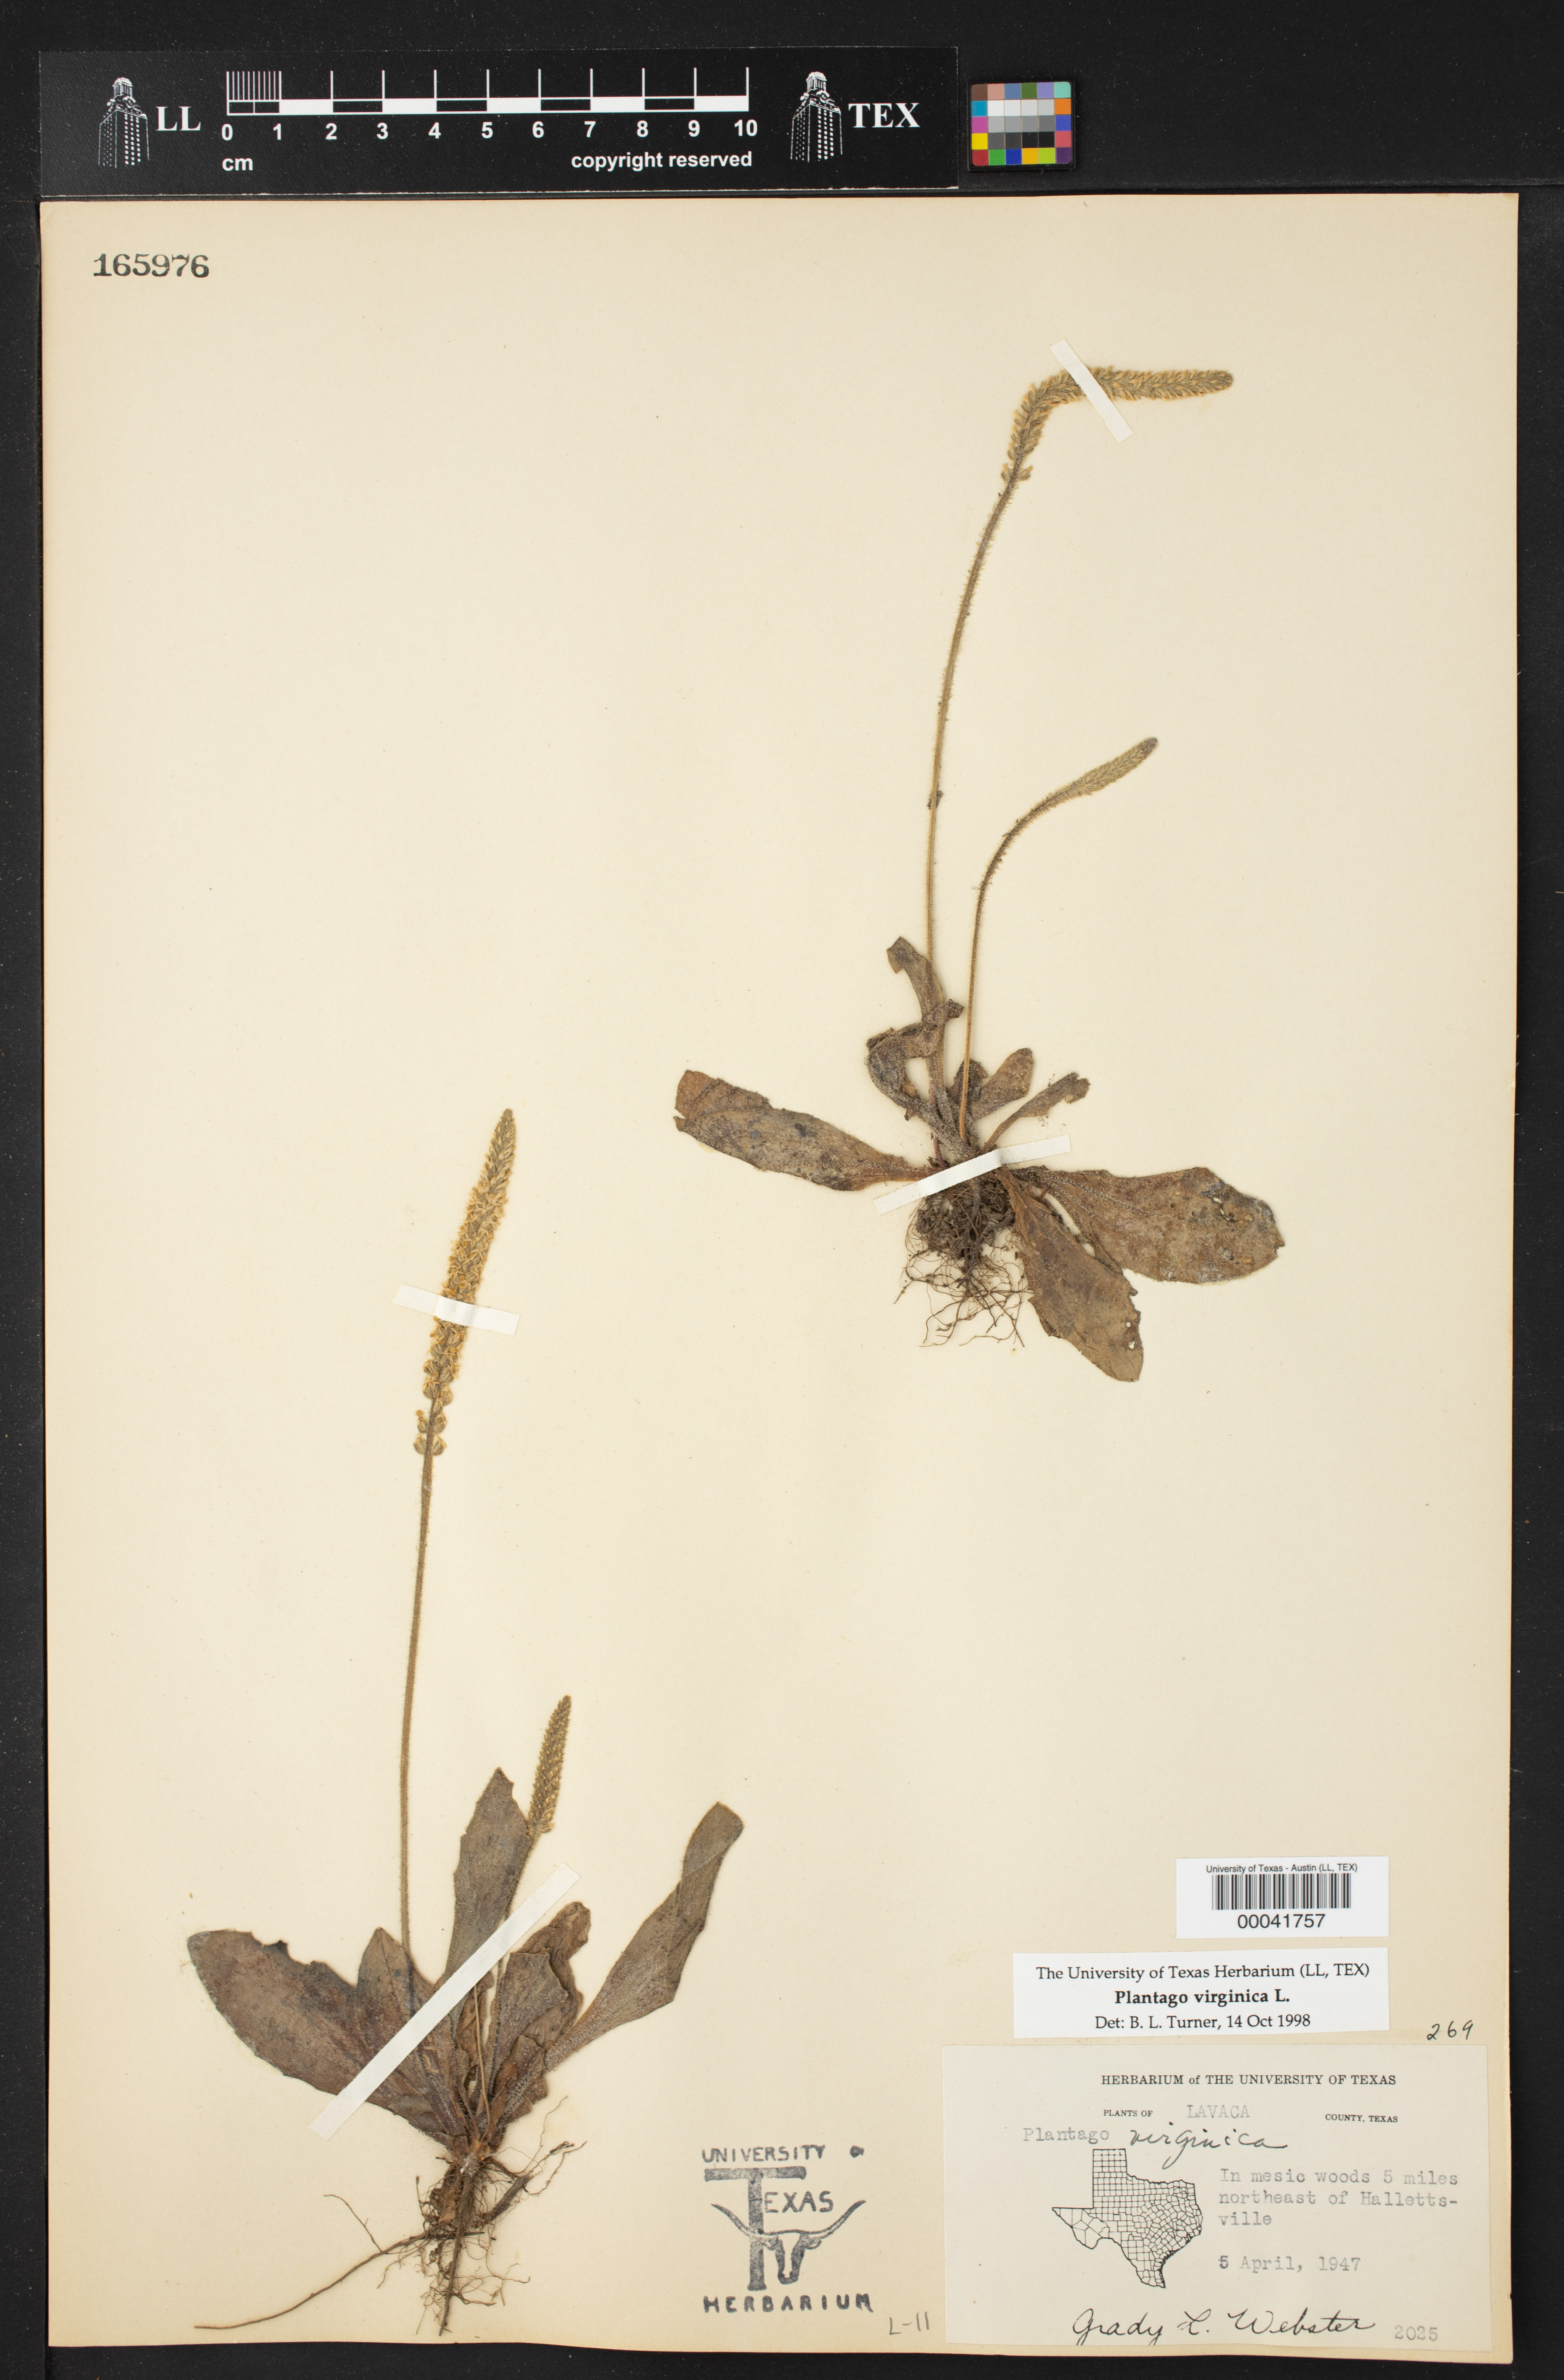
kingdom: Plantae
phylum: Tracheophyta
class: Magnoliopsida
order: Lamiales
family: Plantaginaceae
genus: Plantago
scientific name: Plantago virginica
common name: Hoary plantain
